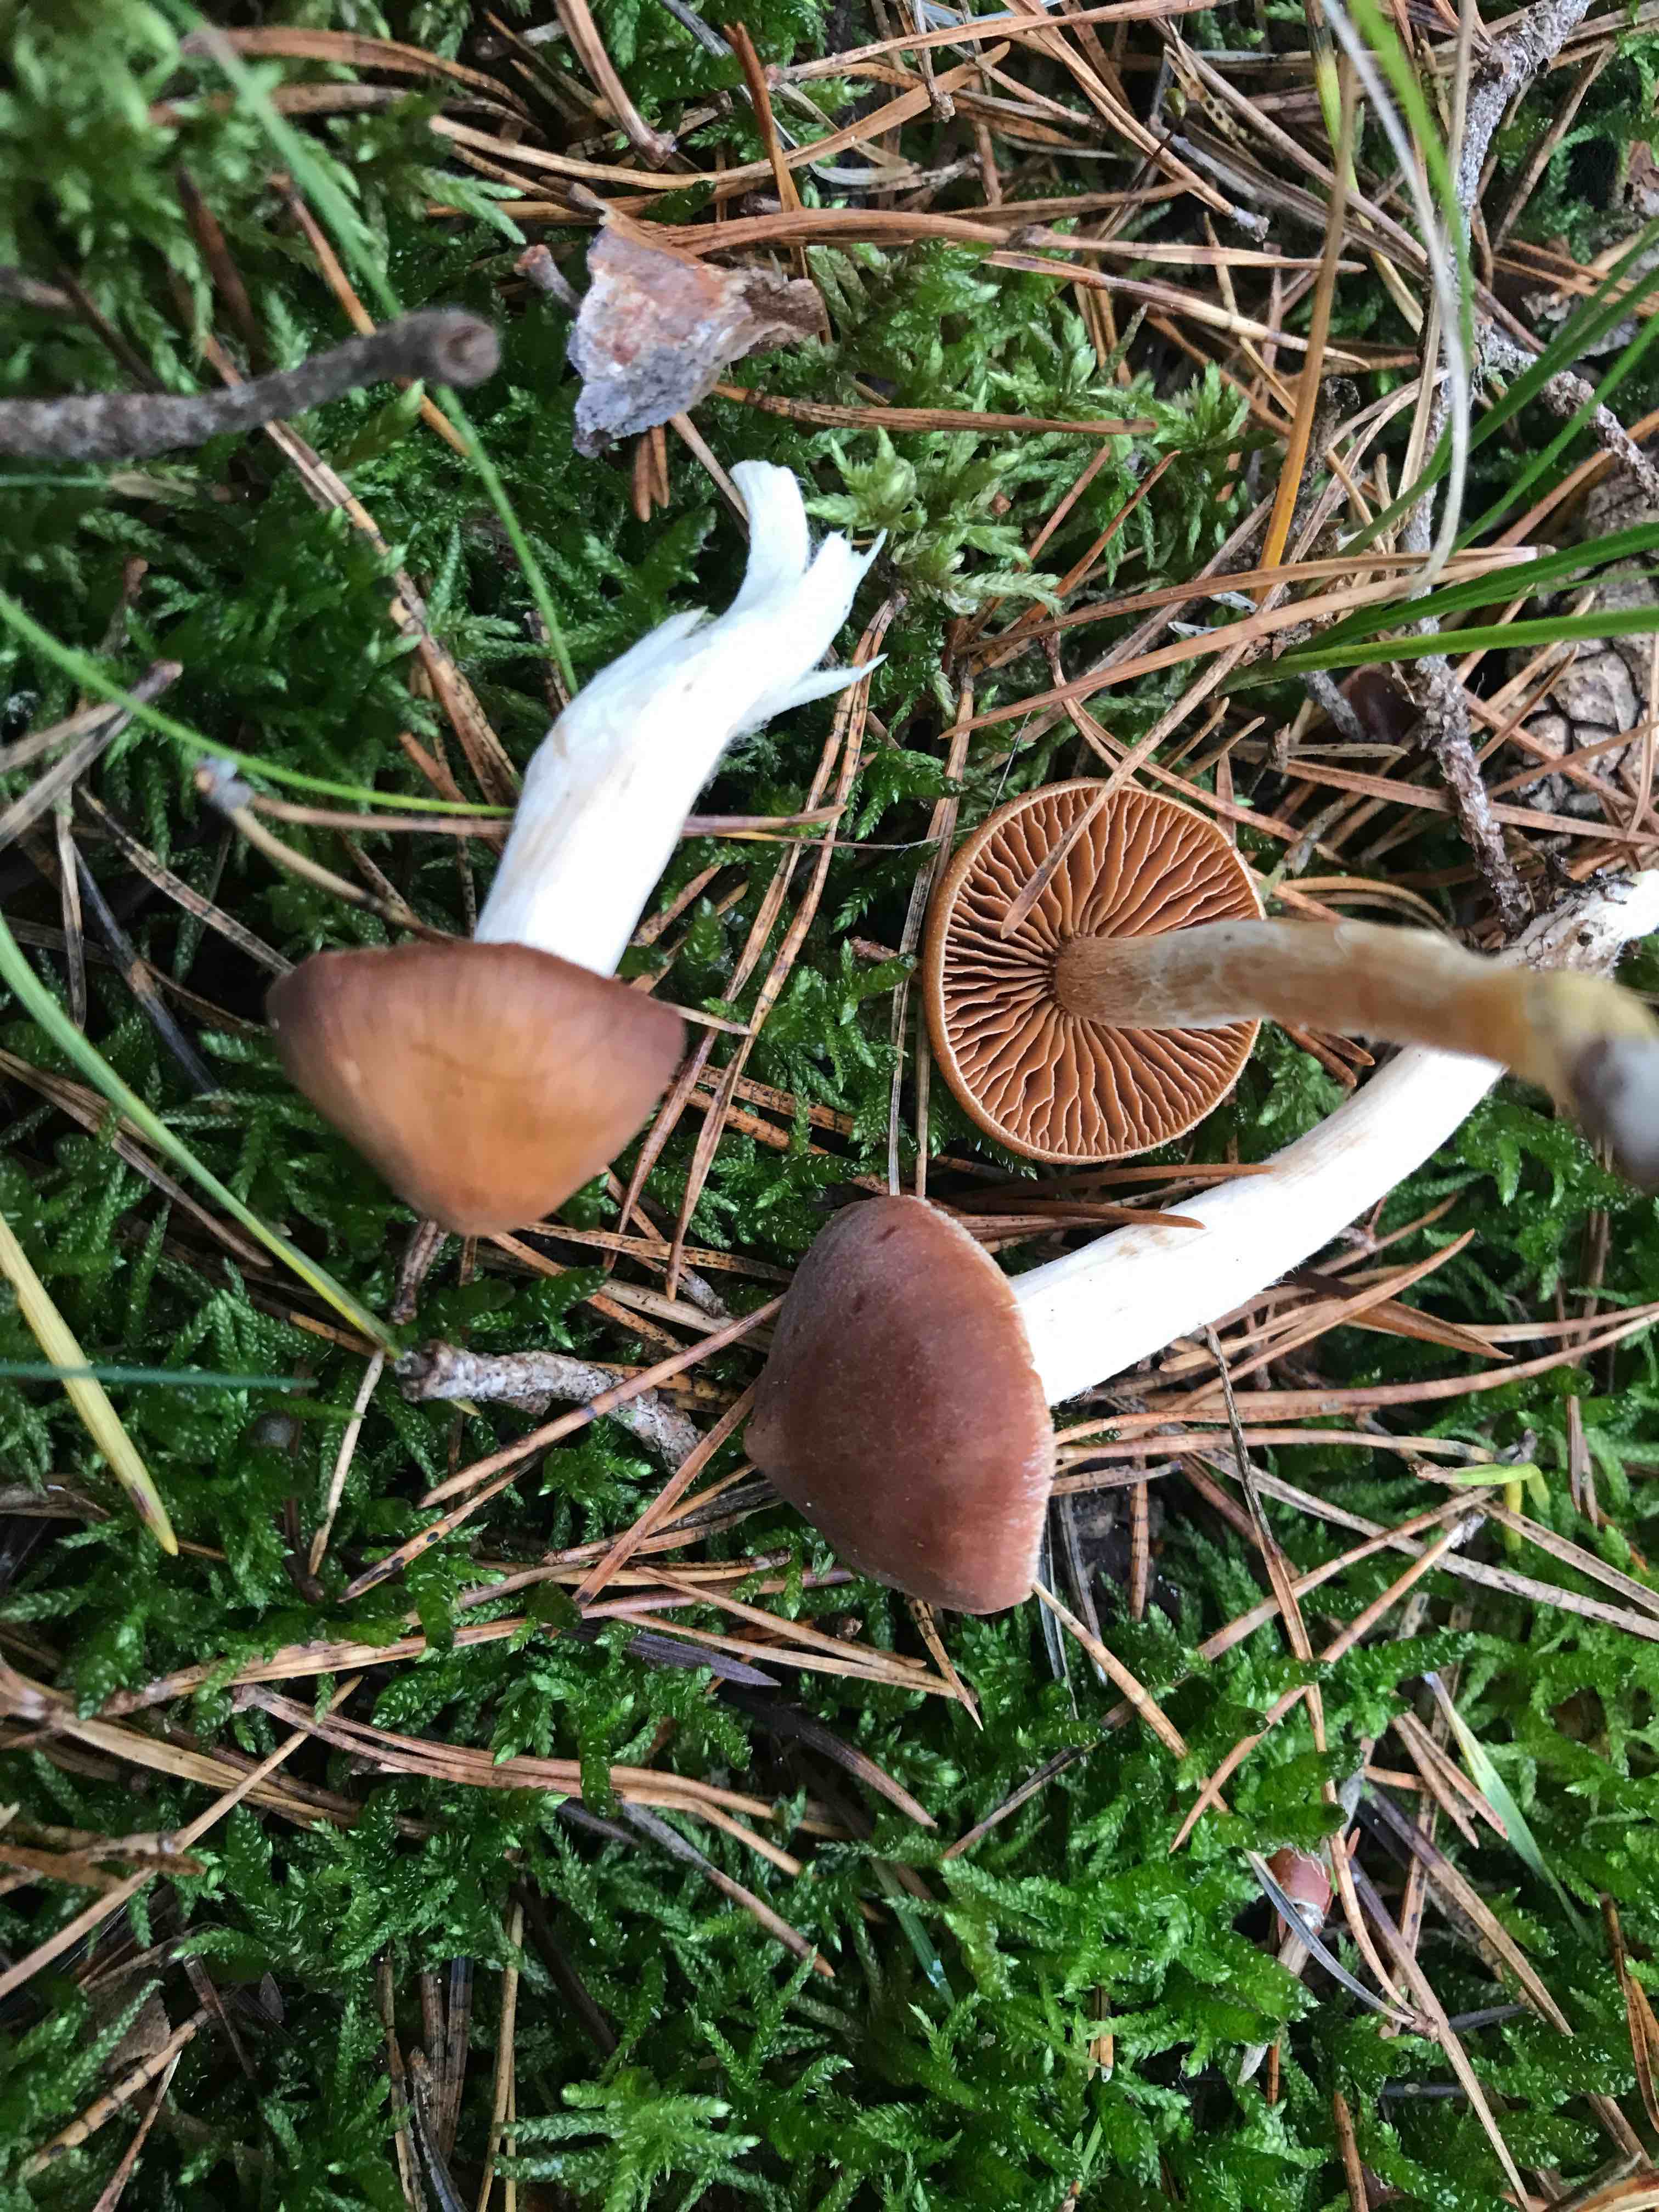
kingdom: Fungi
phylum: Basidiomycota
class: Agaricomycetes
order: Agaricales
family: Cortinariaceae
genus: Cortinarius
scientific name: Cortinarius
